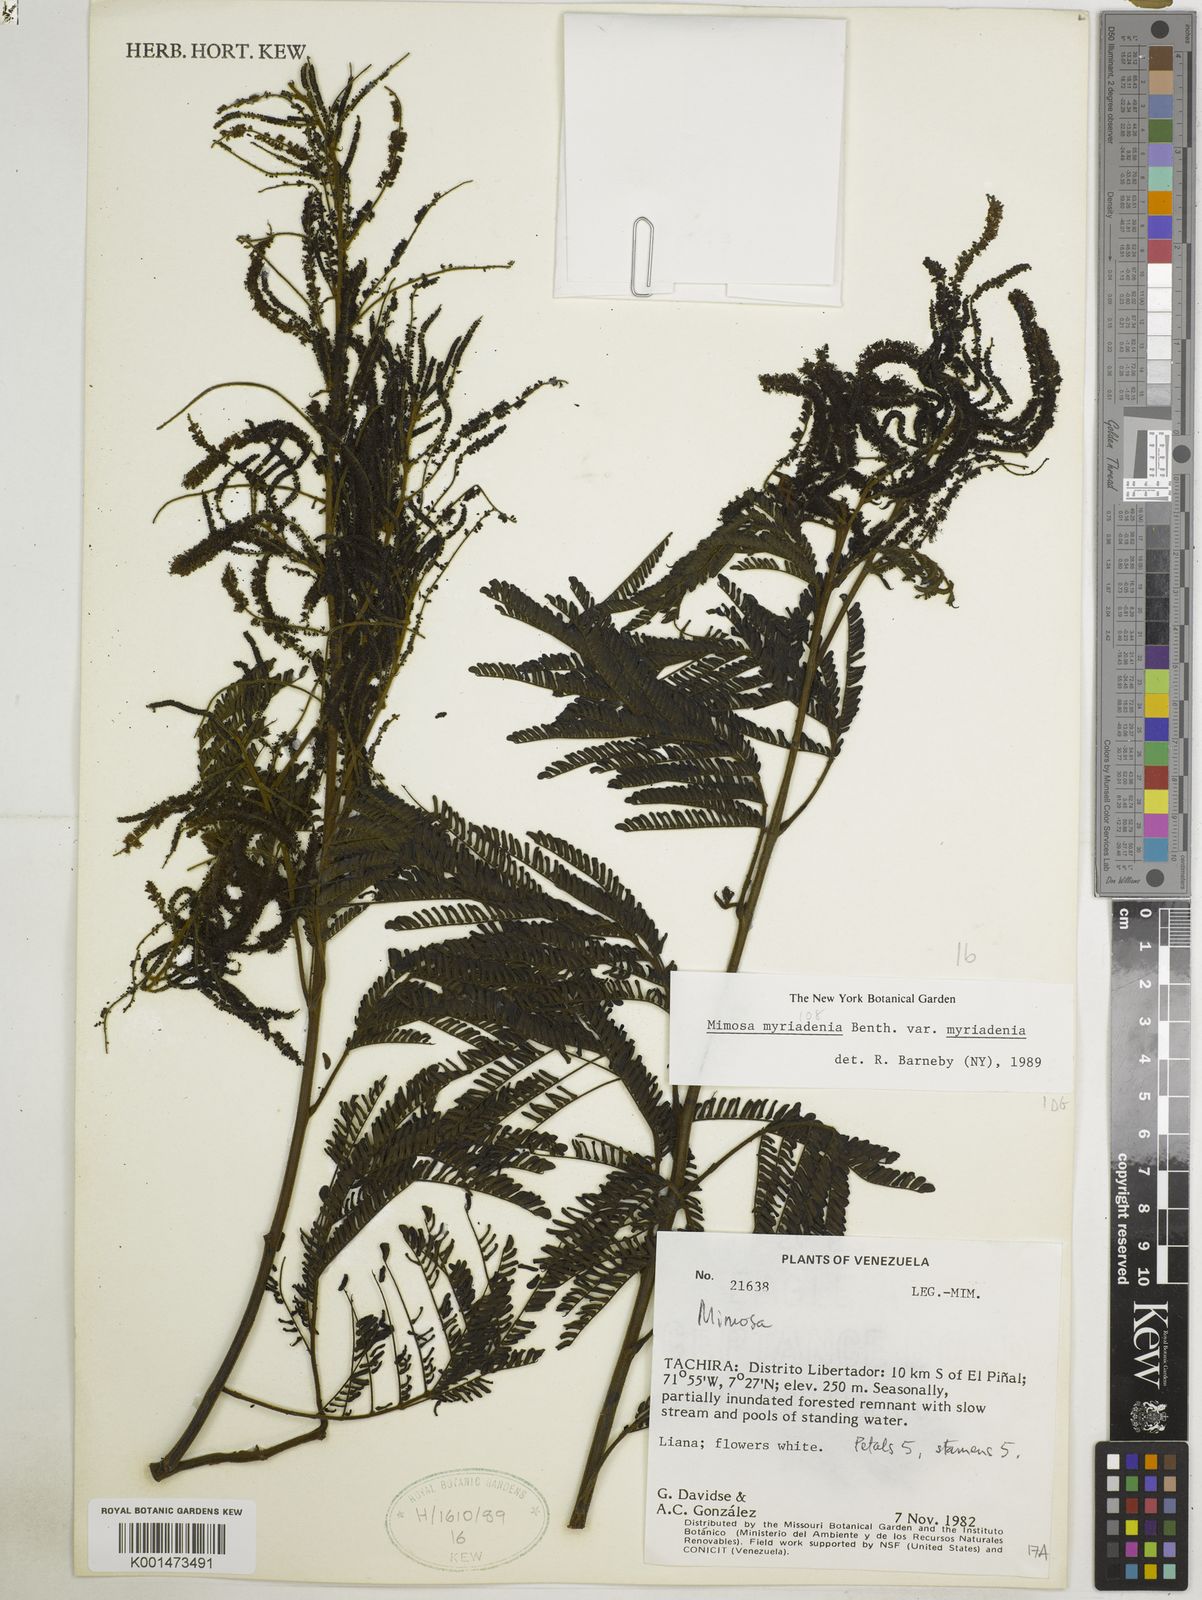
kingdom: Plantae
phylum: Tracheophyta
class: Magnoliopsida
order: Fabales
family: Fabaceae
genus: Mimosa
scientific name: Mimosa myriadenia
